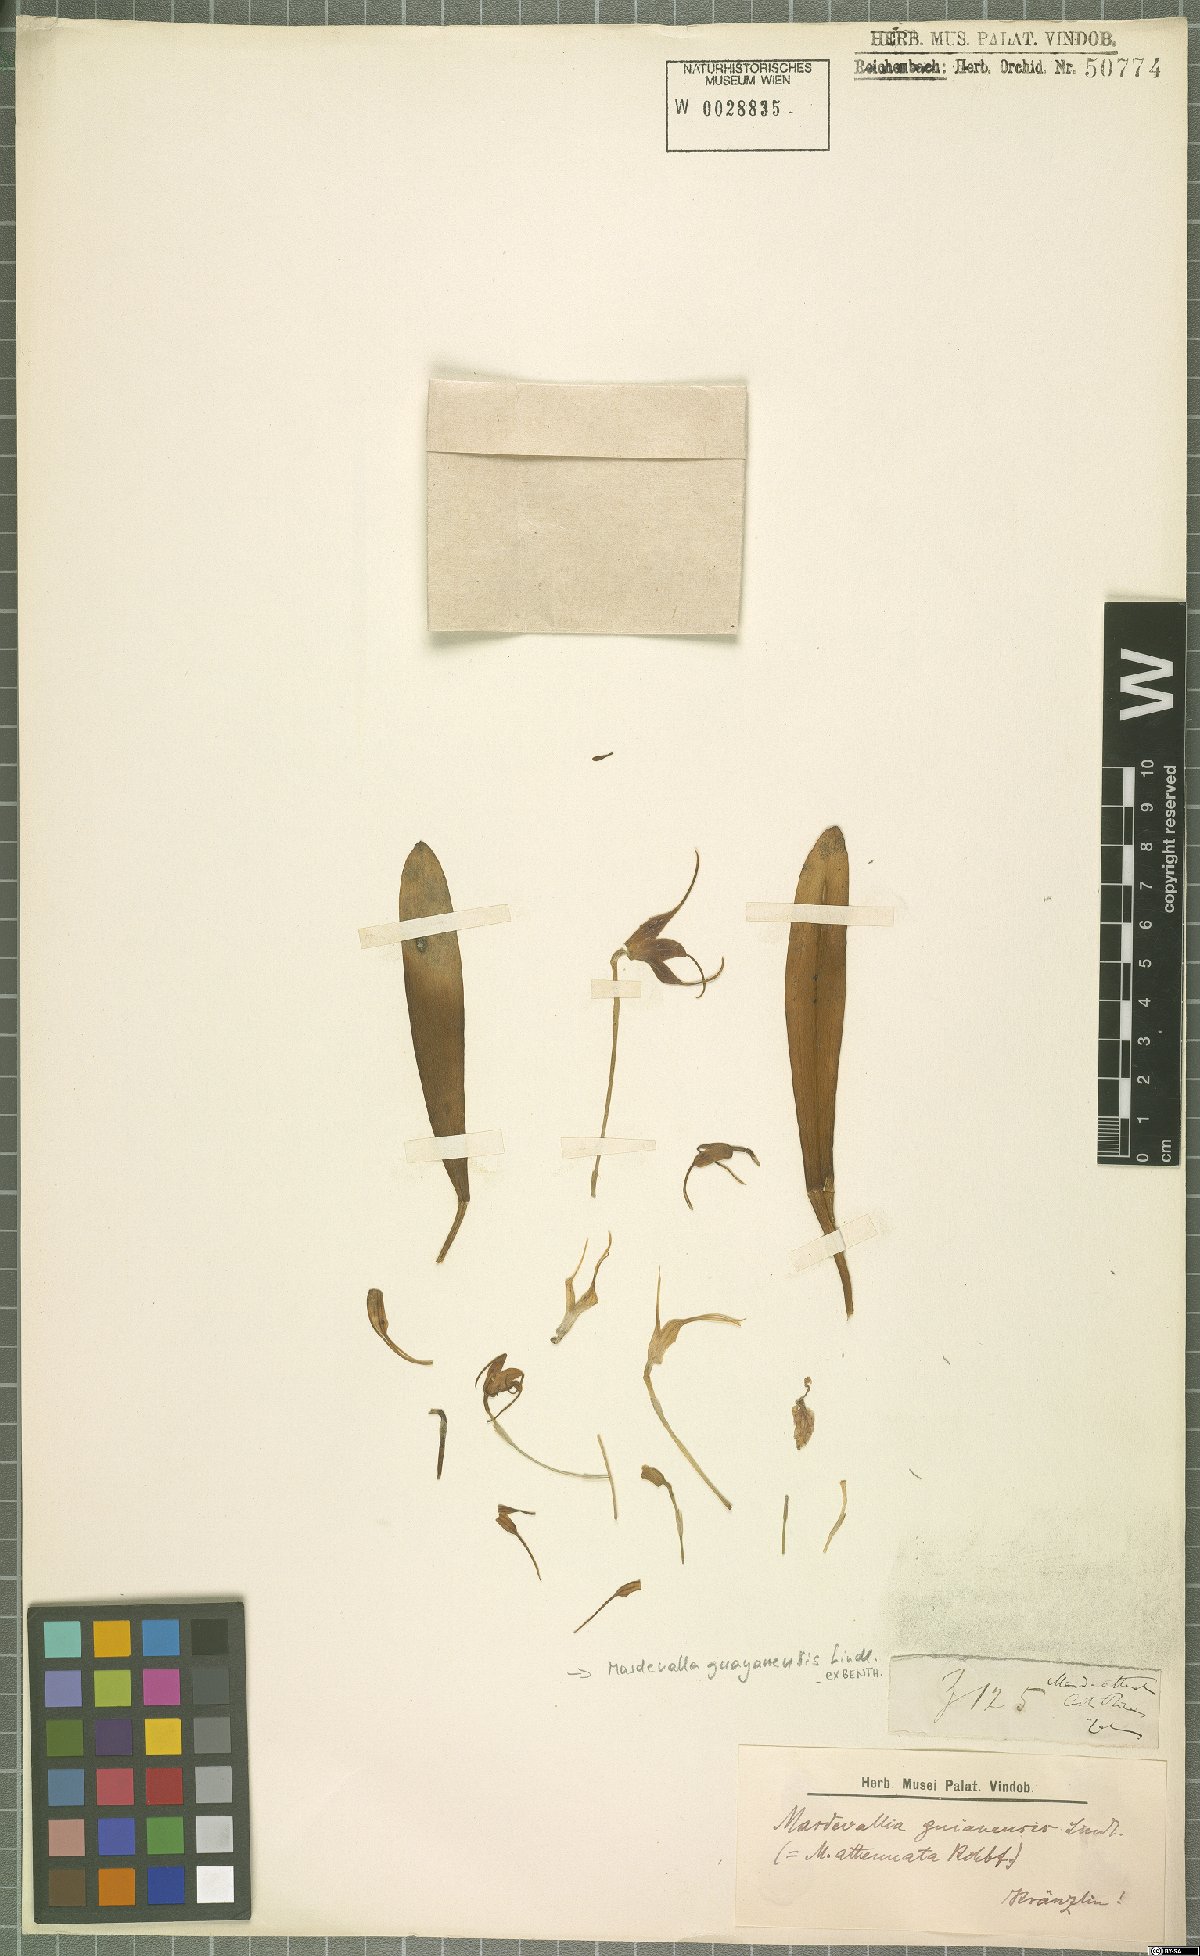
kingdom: Plantae
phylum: Tracheophyta
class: Liliopsida
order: Asparagales
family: Orchidaceae
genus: Masdevallia
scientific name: Masdevallia fonsecae
